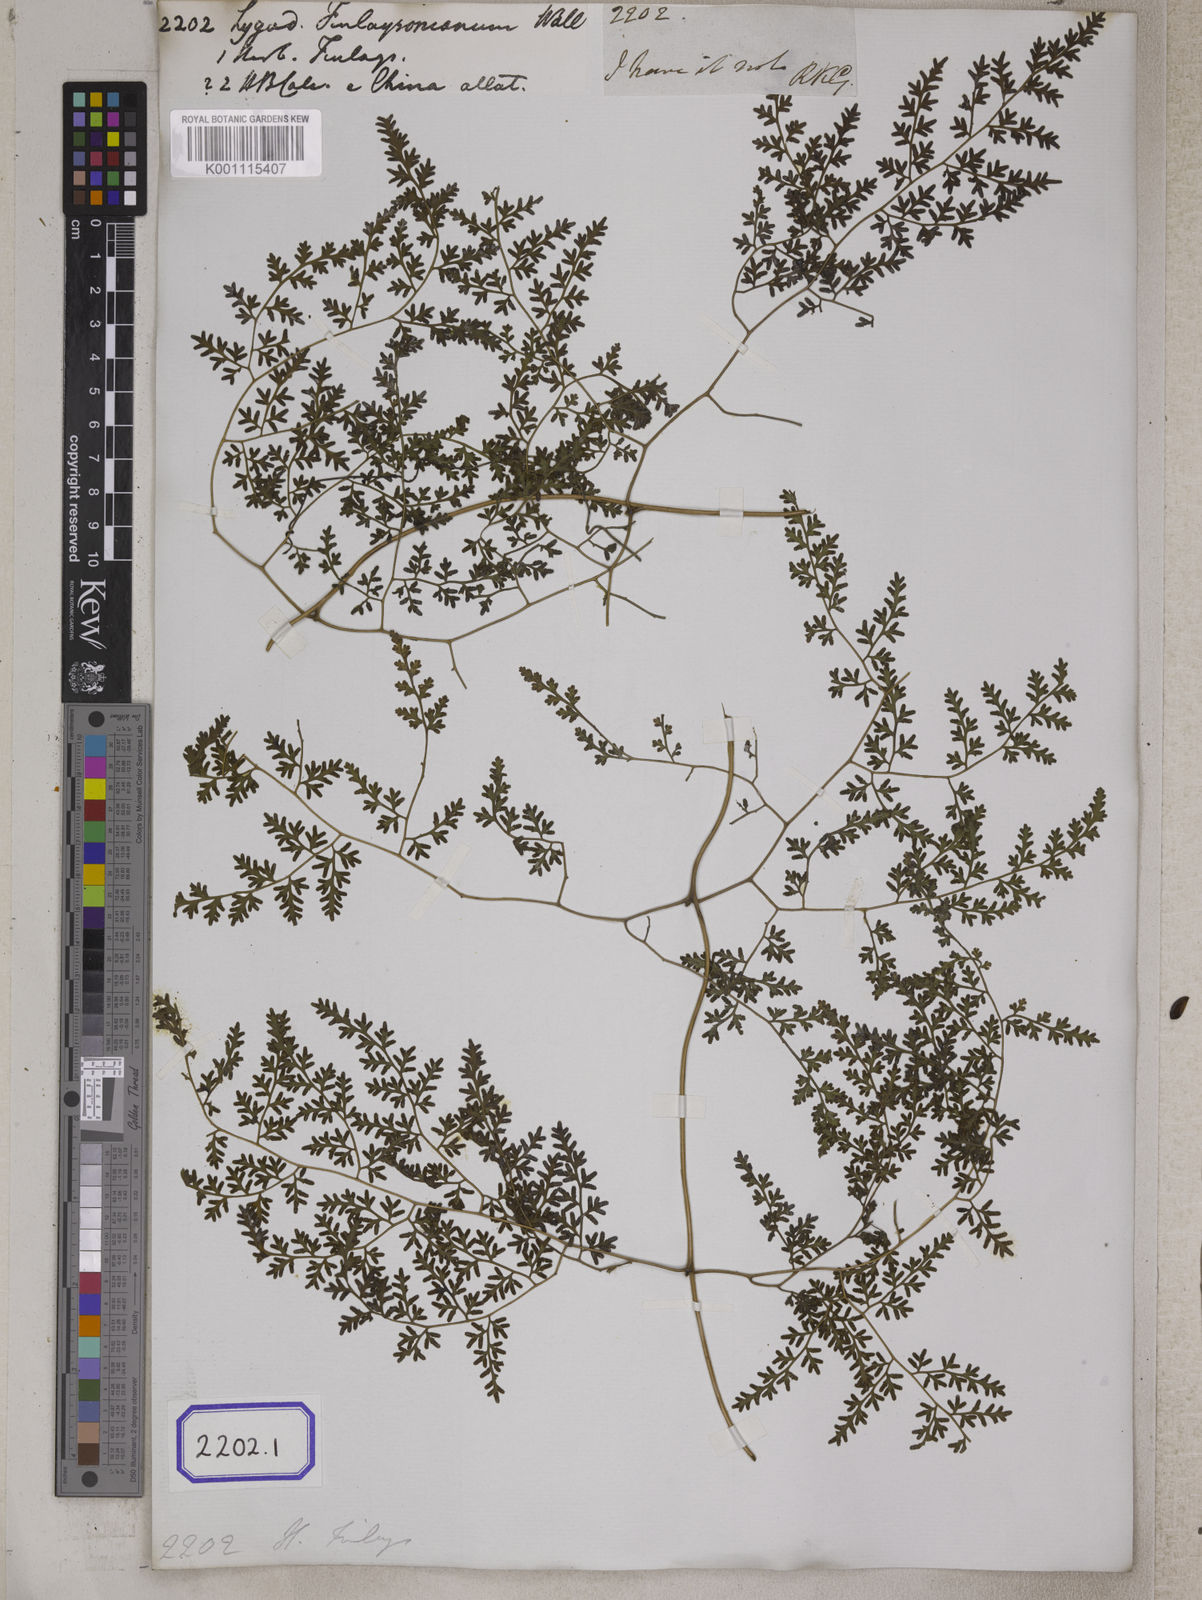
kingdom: Plantae
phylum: Tracheophyta
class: Polypodiopsida
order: Schizaeales
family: Lygodiaceae
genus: Lygodium
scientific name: Lygodium japonicum
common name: Japanese climbing fern
